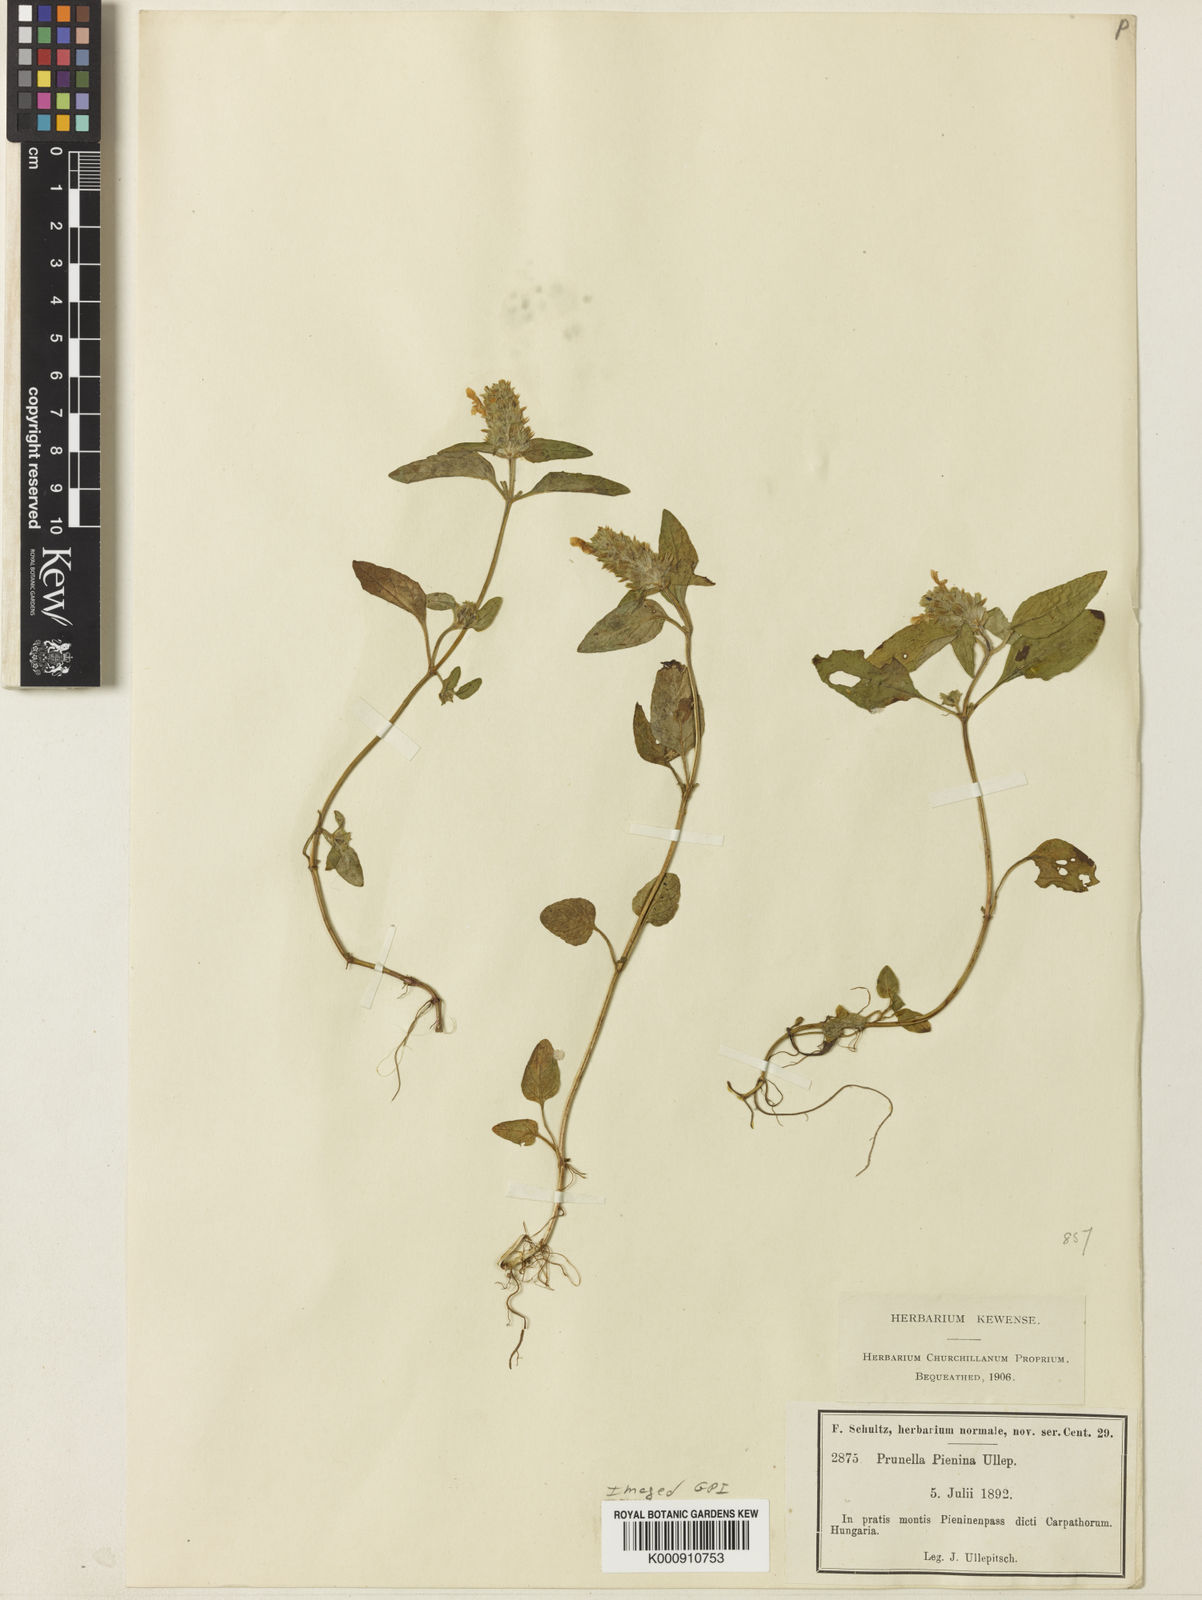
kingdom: Plantae
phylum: Tracheophyta
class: Magnoliopsida
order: Lamiales
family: Lamiaceae
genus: Prunella
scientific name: Prunella pienina
